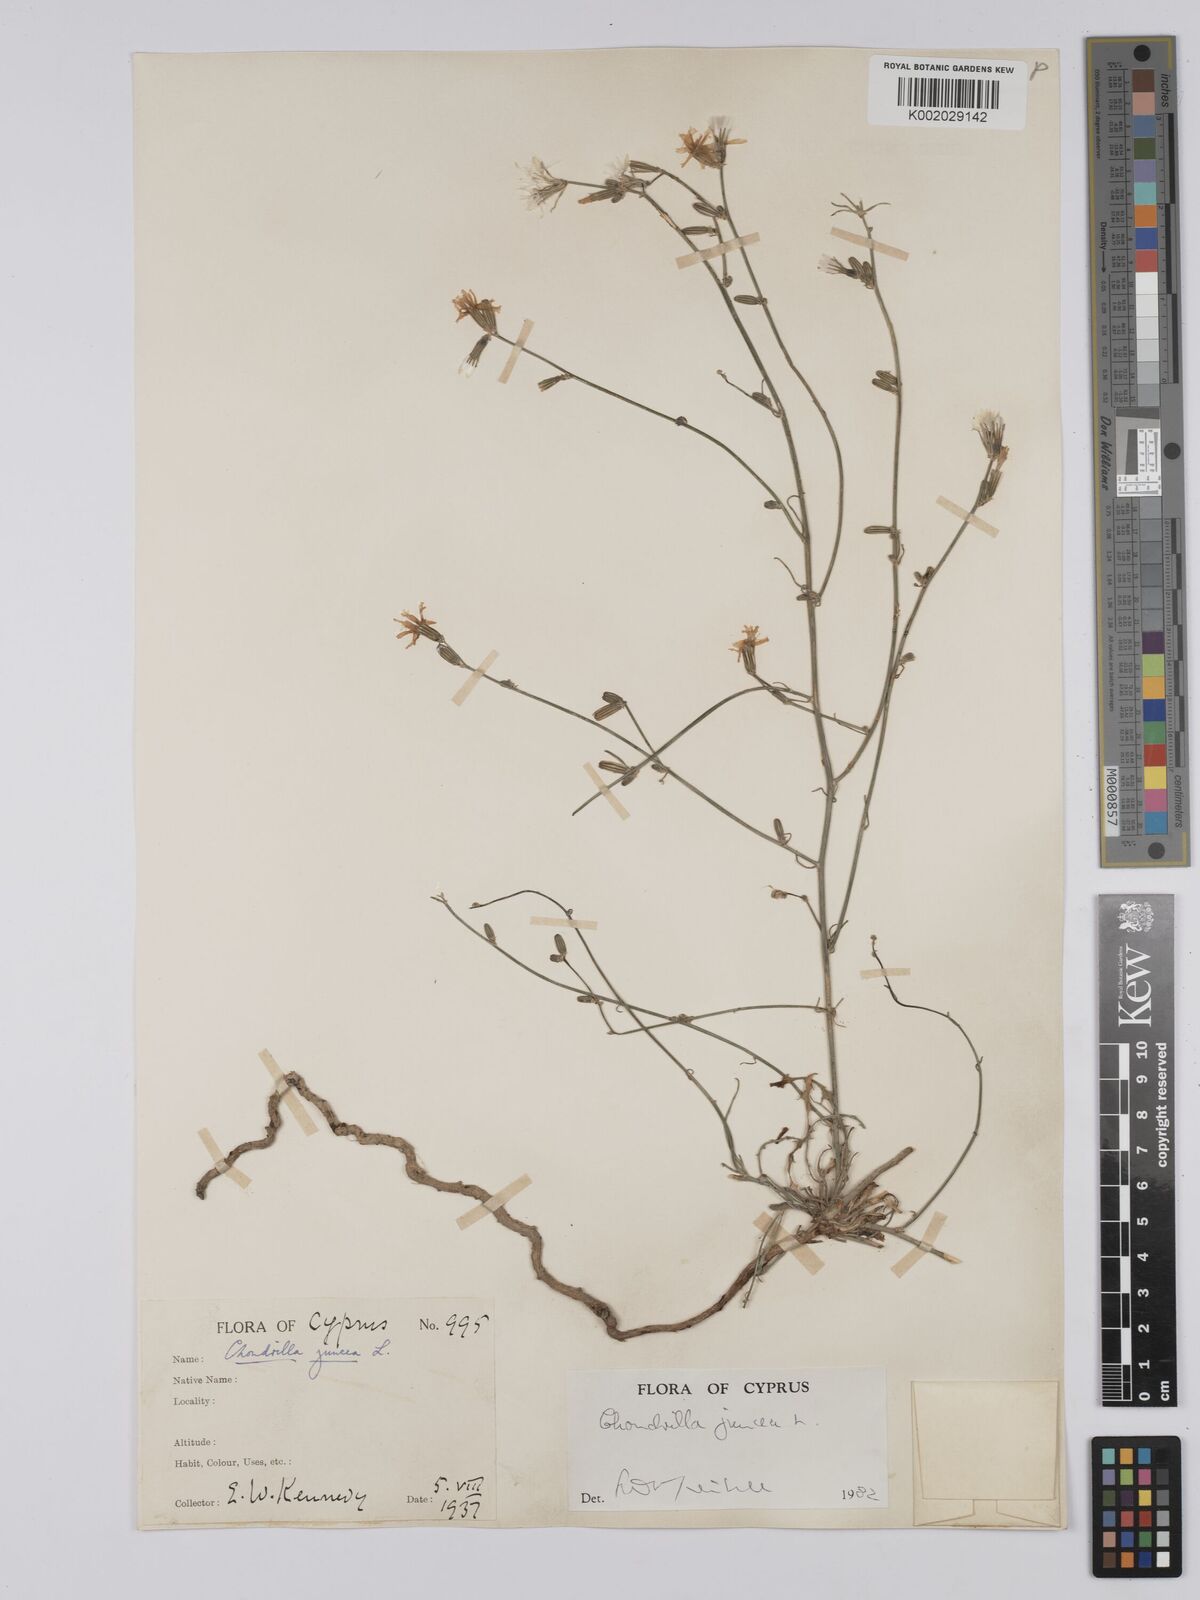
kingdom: Plantae
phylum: Tracheophyta
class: Magnoliopsida
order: Asterales
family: Asteraceae
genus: Chondrilla
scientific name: Chondrilla juncea
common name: Skeleton weed
